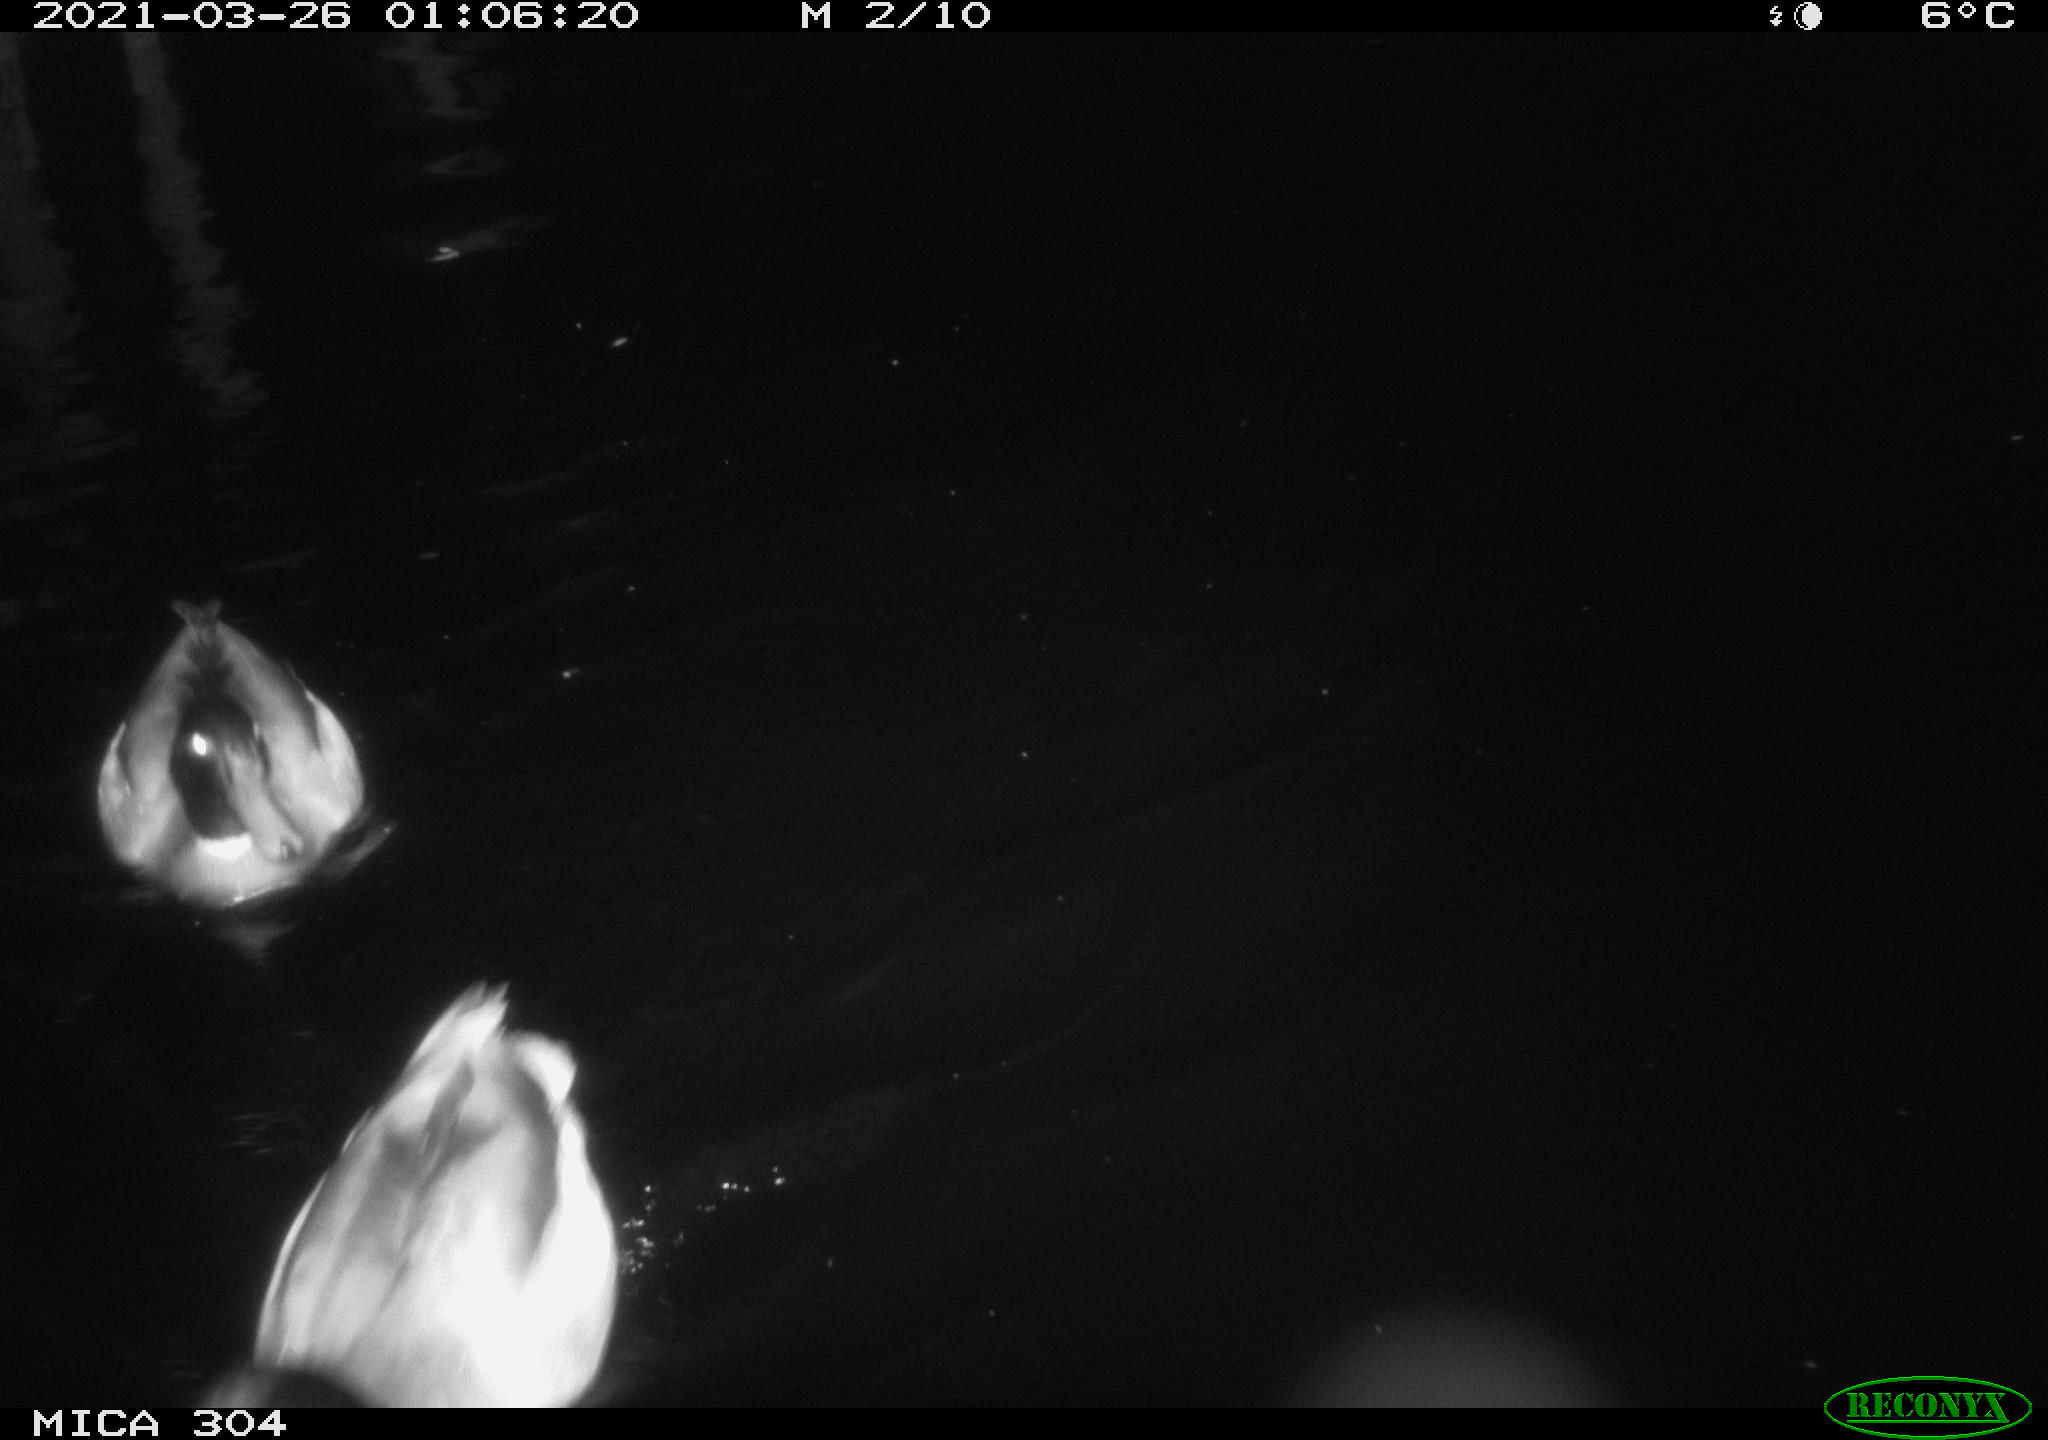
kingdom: Animalia
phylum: Chordata
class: Aves
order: Anseriformes
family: Anatidae
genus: Anas
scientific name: Anas platyrhynchos
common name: Mallard
